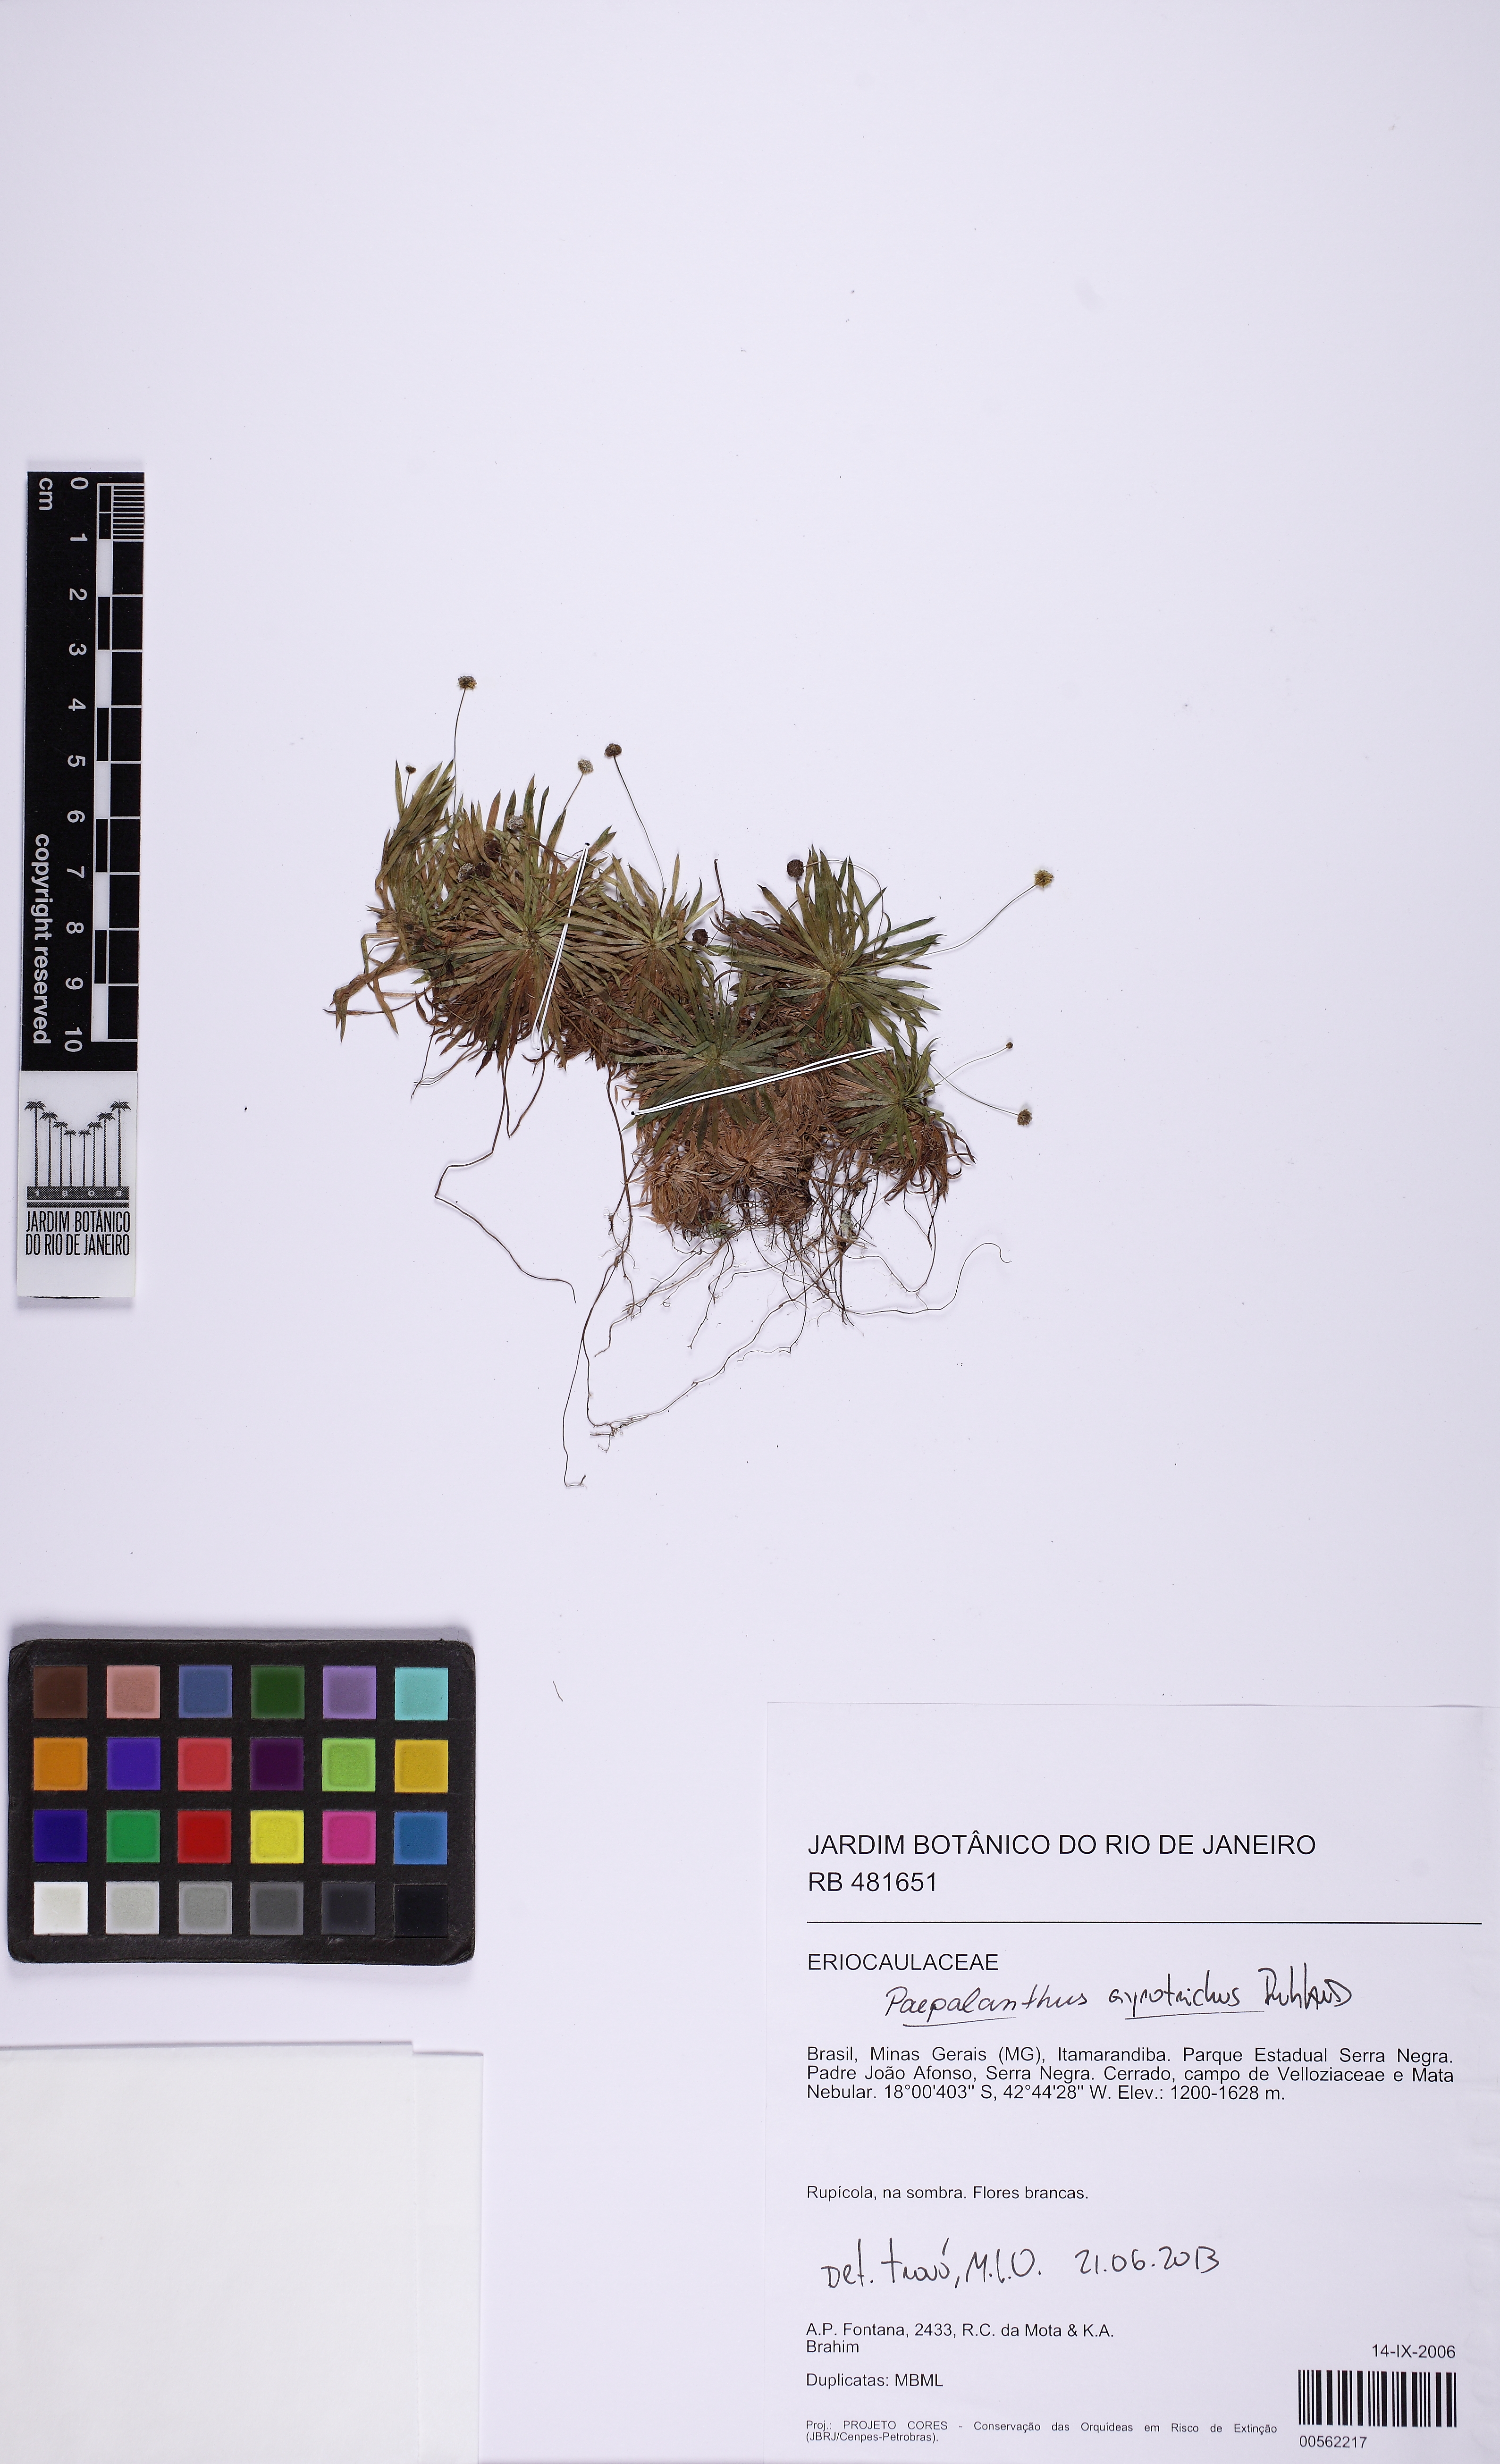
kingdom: Plantae
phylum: Tracheophyta
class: Liliopsida
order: Poales
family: Eriocaulaceae
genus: Paepalanthus
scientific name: Paepalanthus pullus
